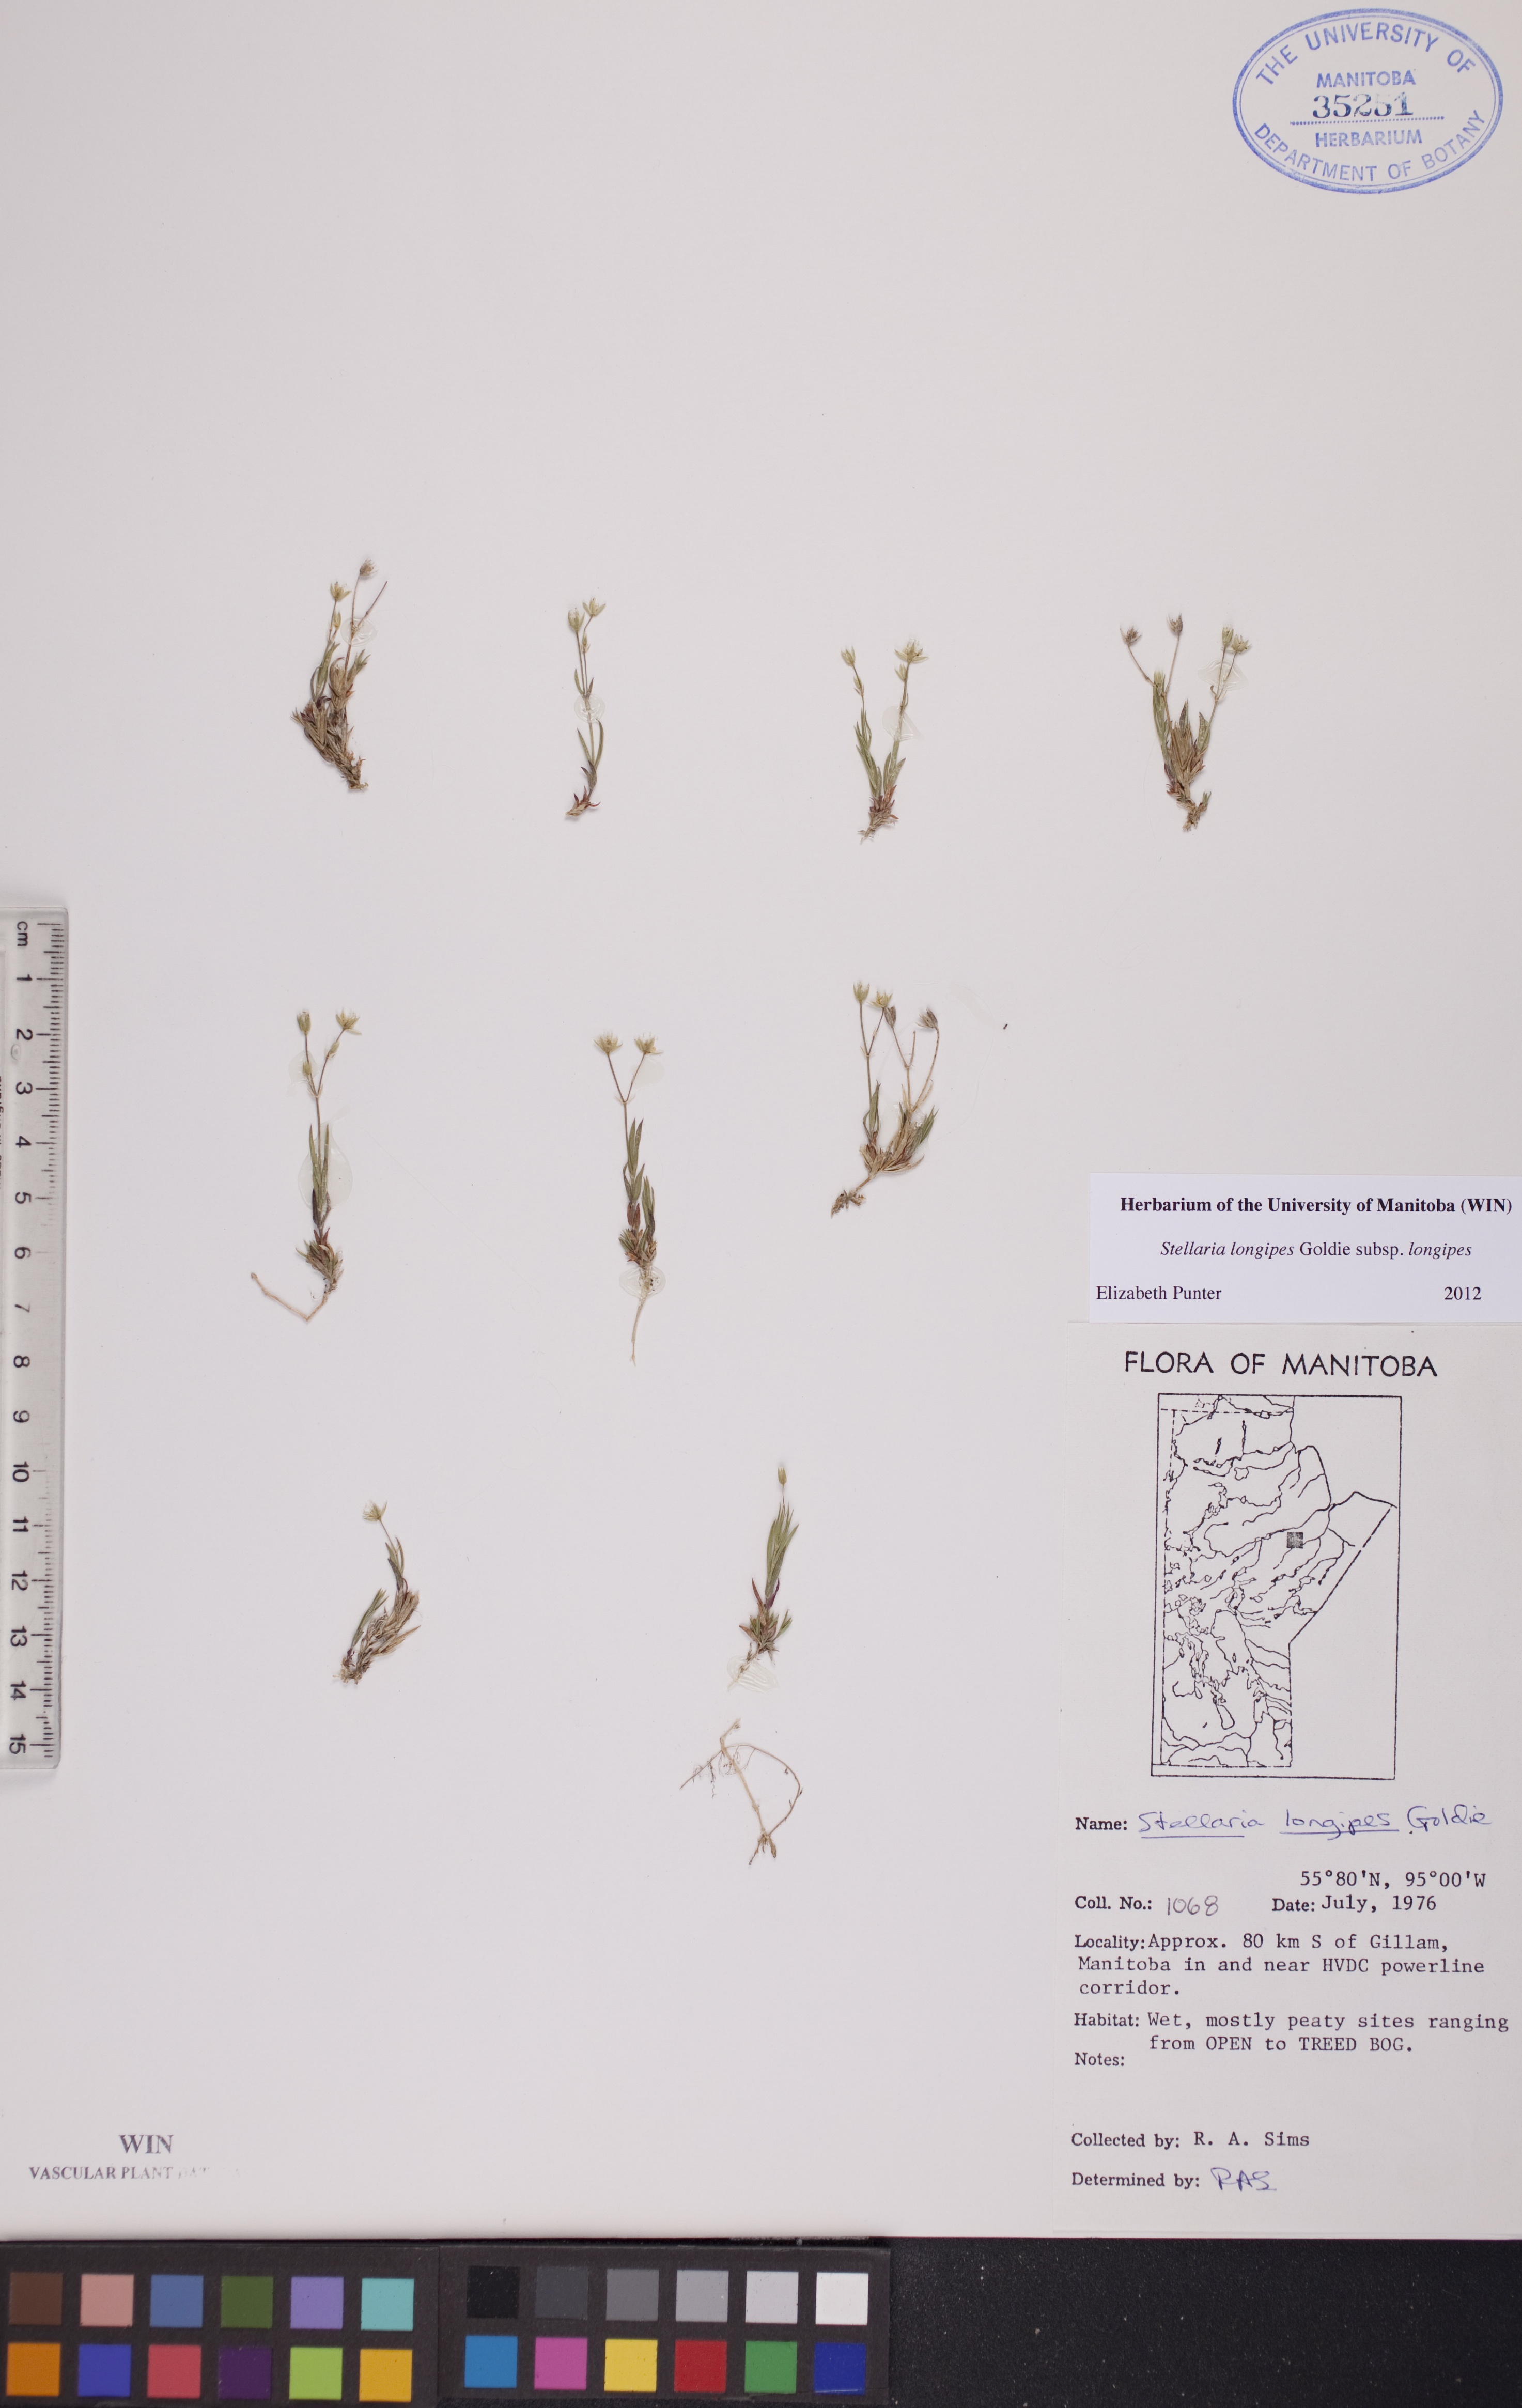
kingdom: Plantae
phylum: Tracheophyta
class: Magnoliopsida
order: Caryophyllales
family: Caryophyllaceae
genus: Stellaria
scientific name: Stellaria longipes
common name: Goldie's starwort
